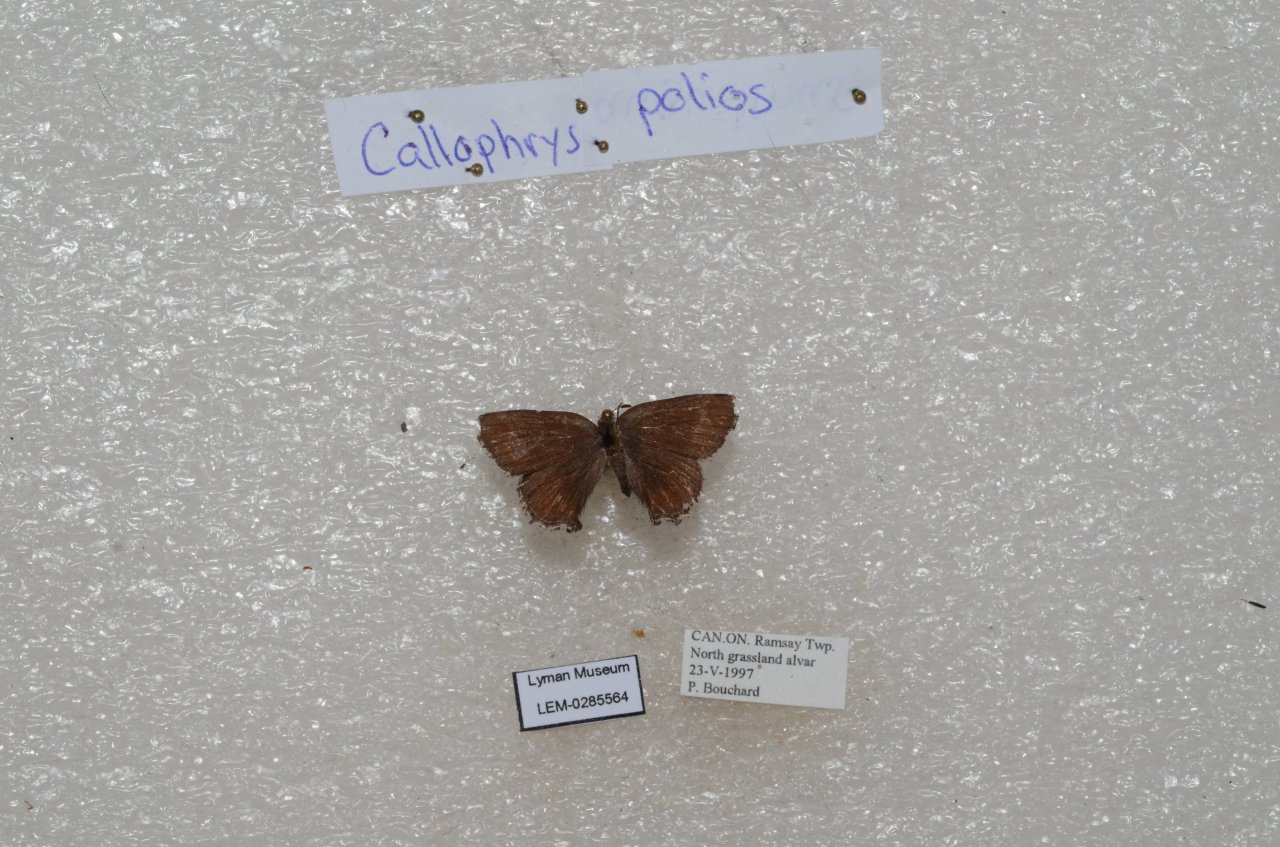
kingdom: Animalia
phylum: Arthropoda
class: Insecta
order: Lepidoptera
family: Lycaenidae
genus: Callophrys
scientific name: Callophrys polios
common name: Hoary Elfin
